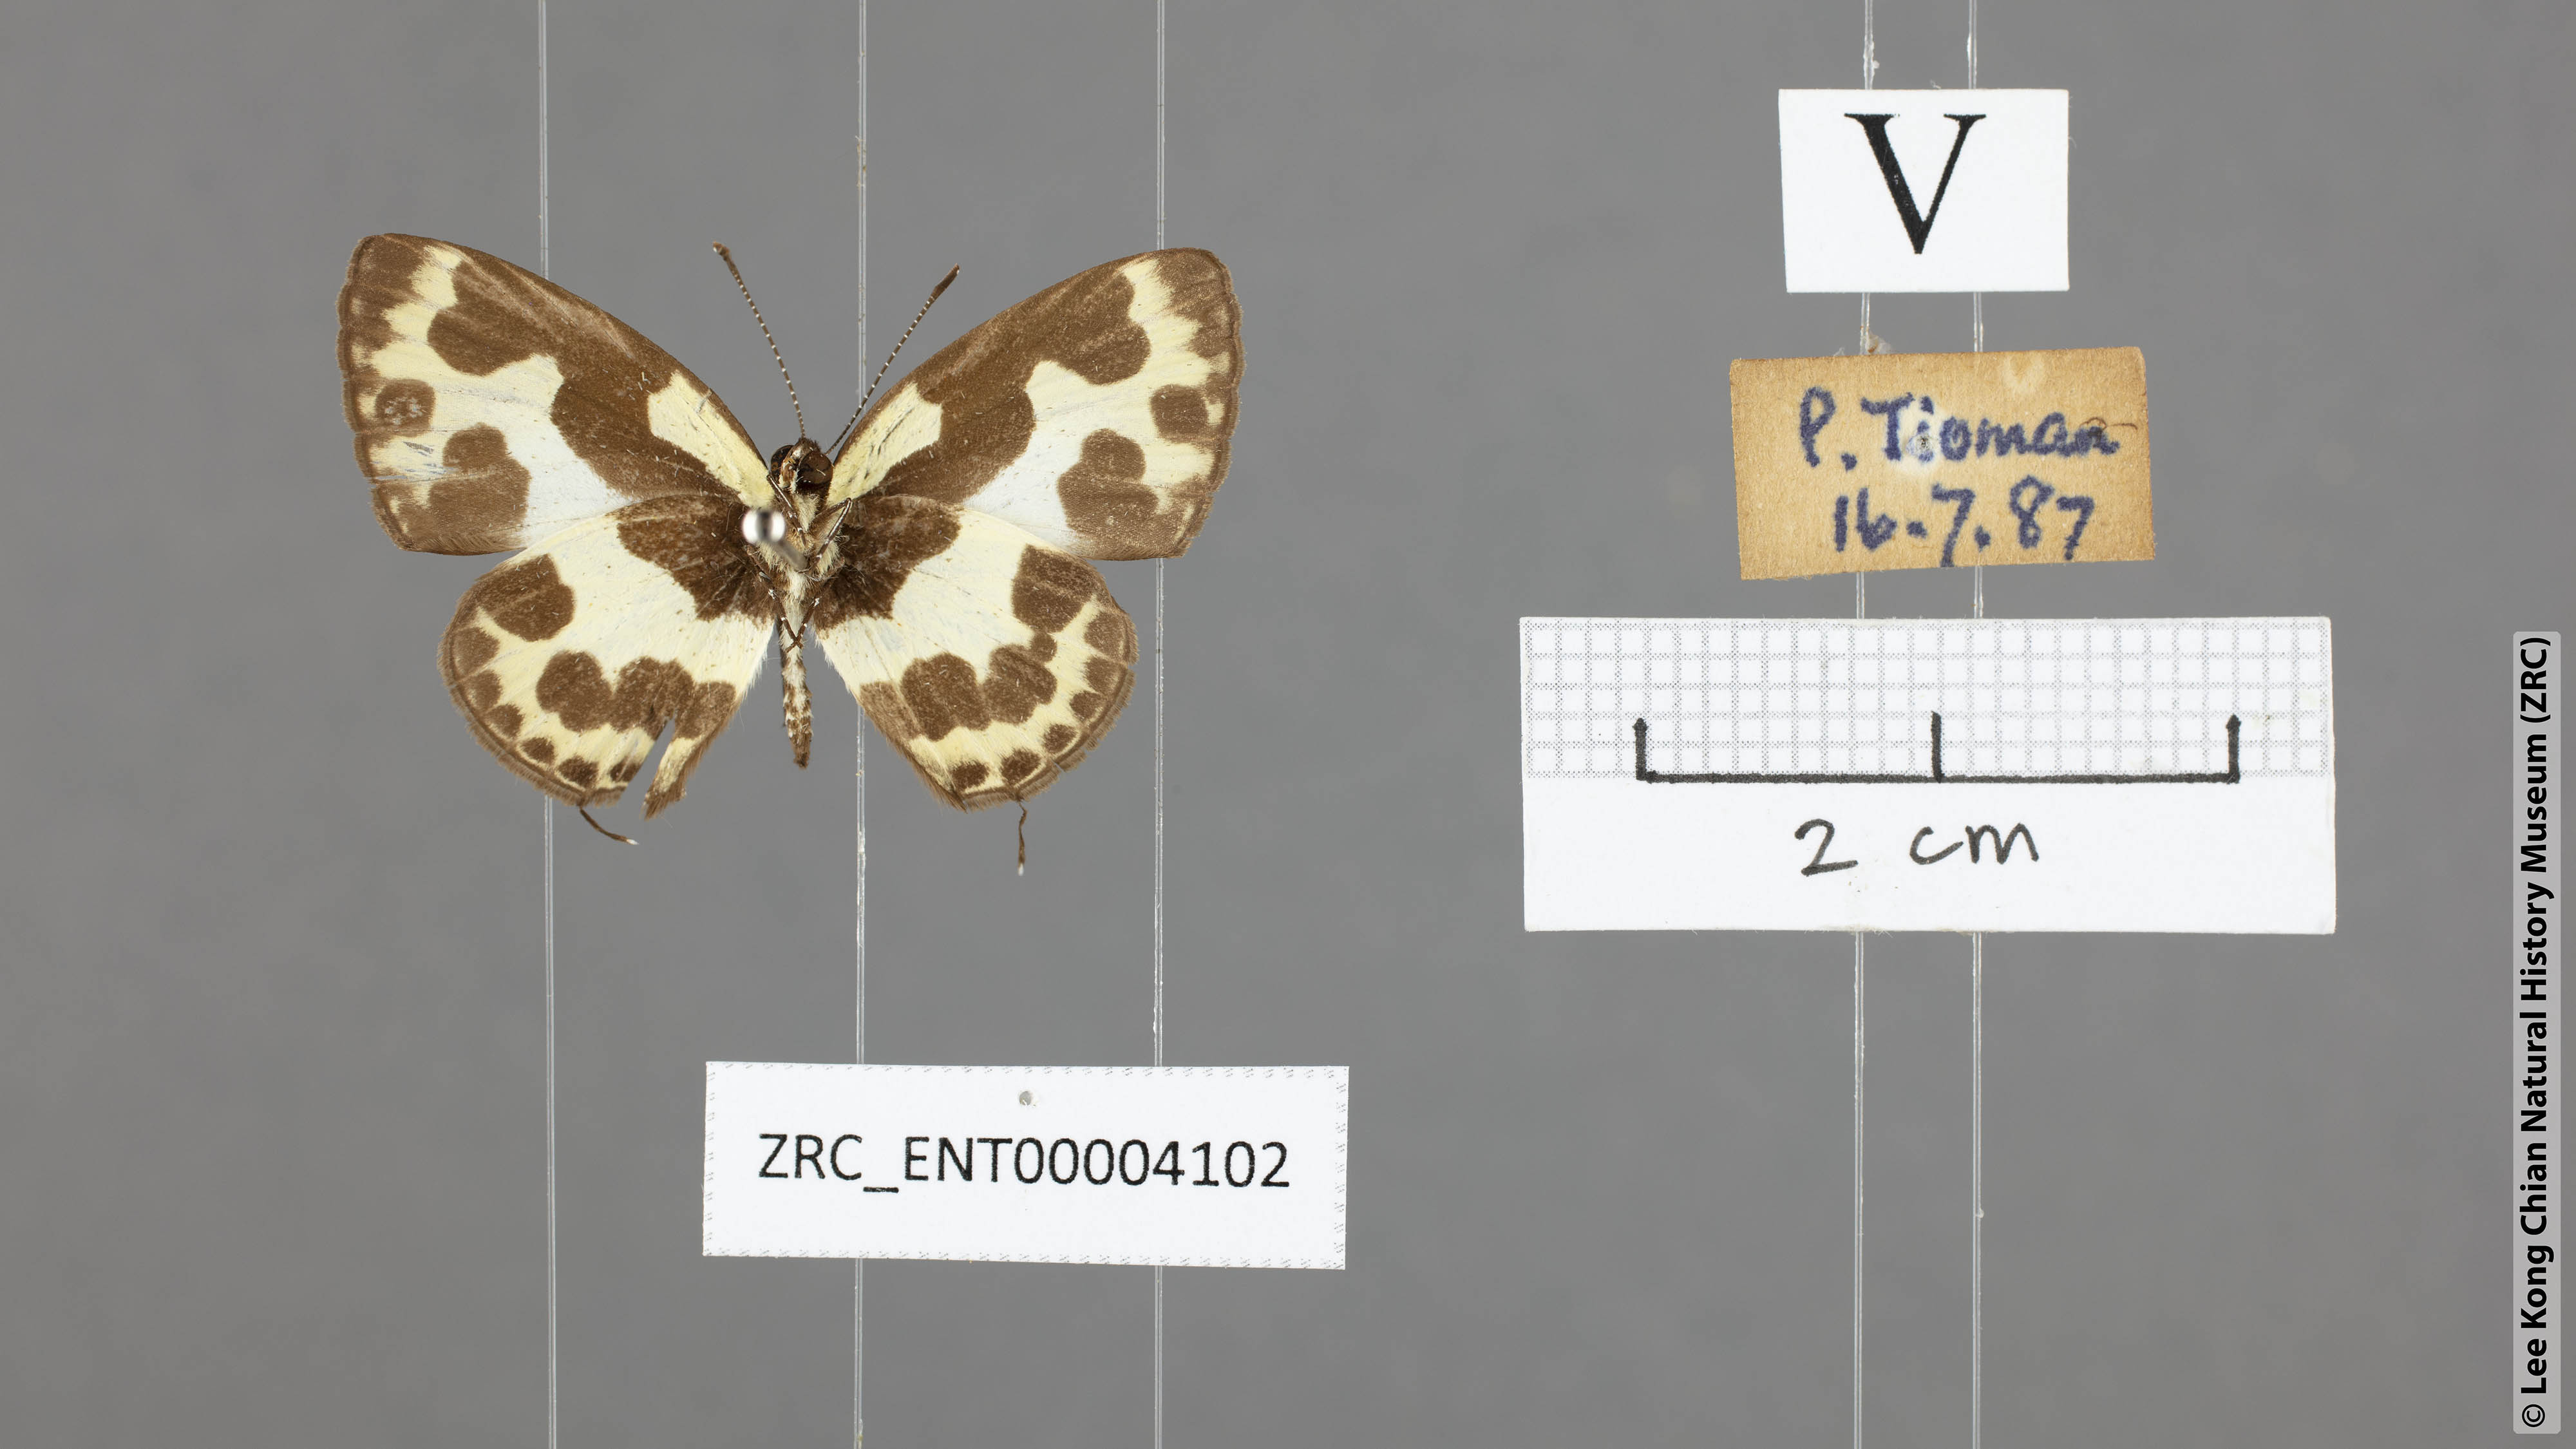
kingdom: Animalia
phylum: Arthropoda
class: Insecta
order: Lepidoptera
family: Lycaenidae
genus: Caleta
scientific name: Caleta elna
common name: Elbowed pierrot
